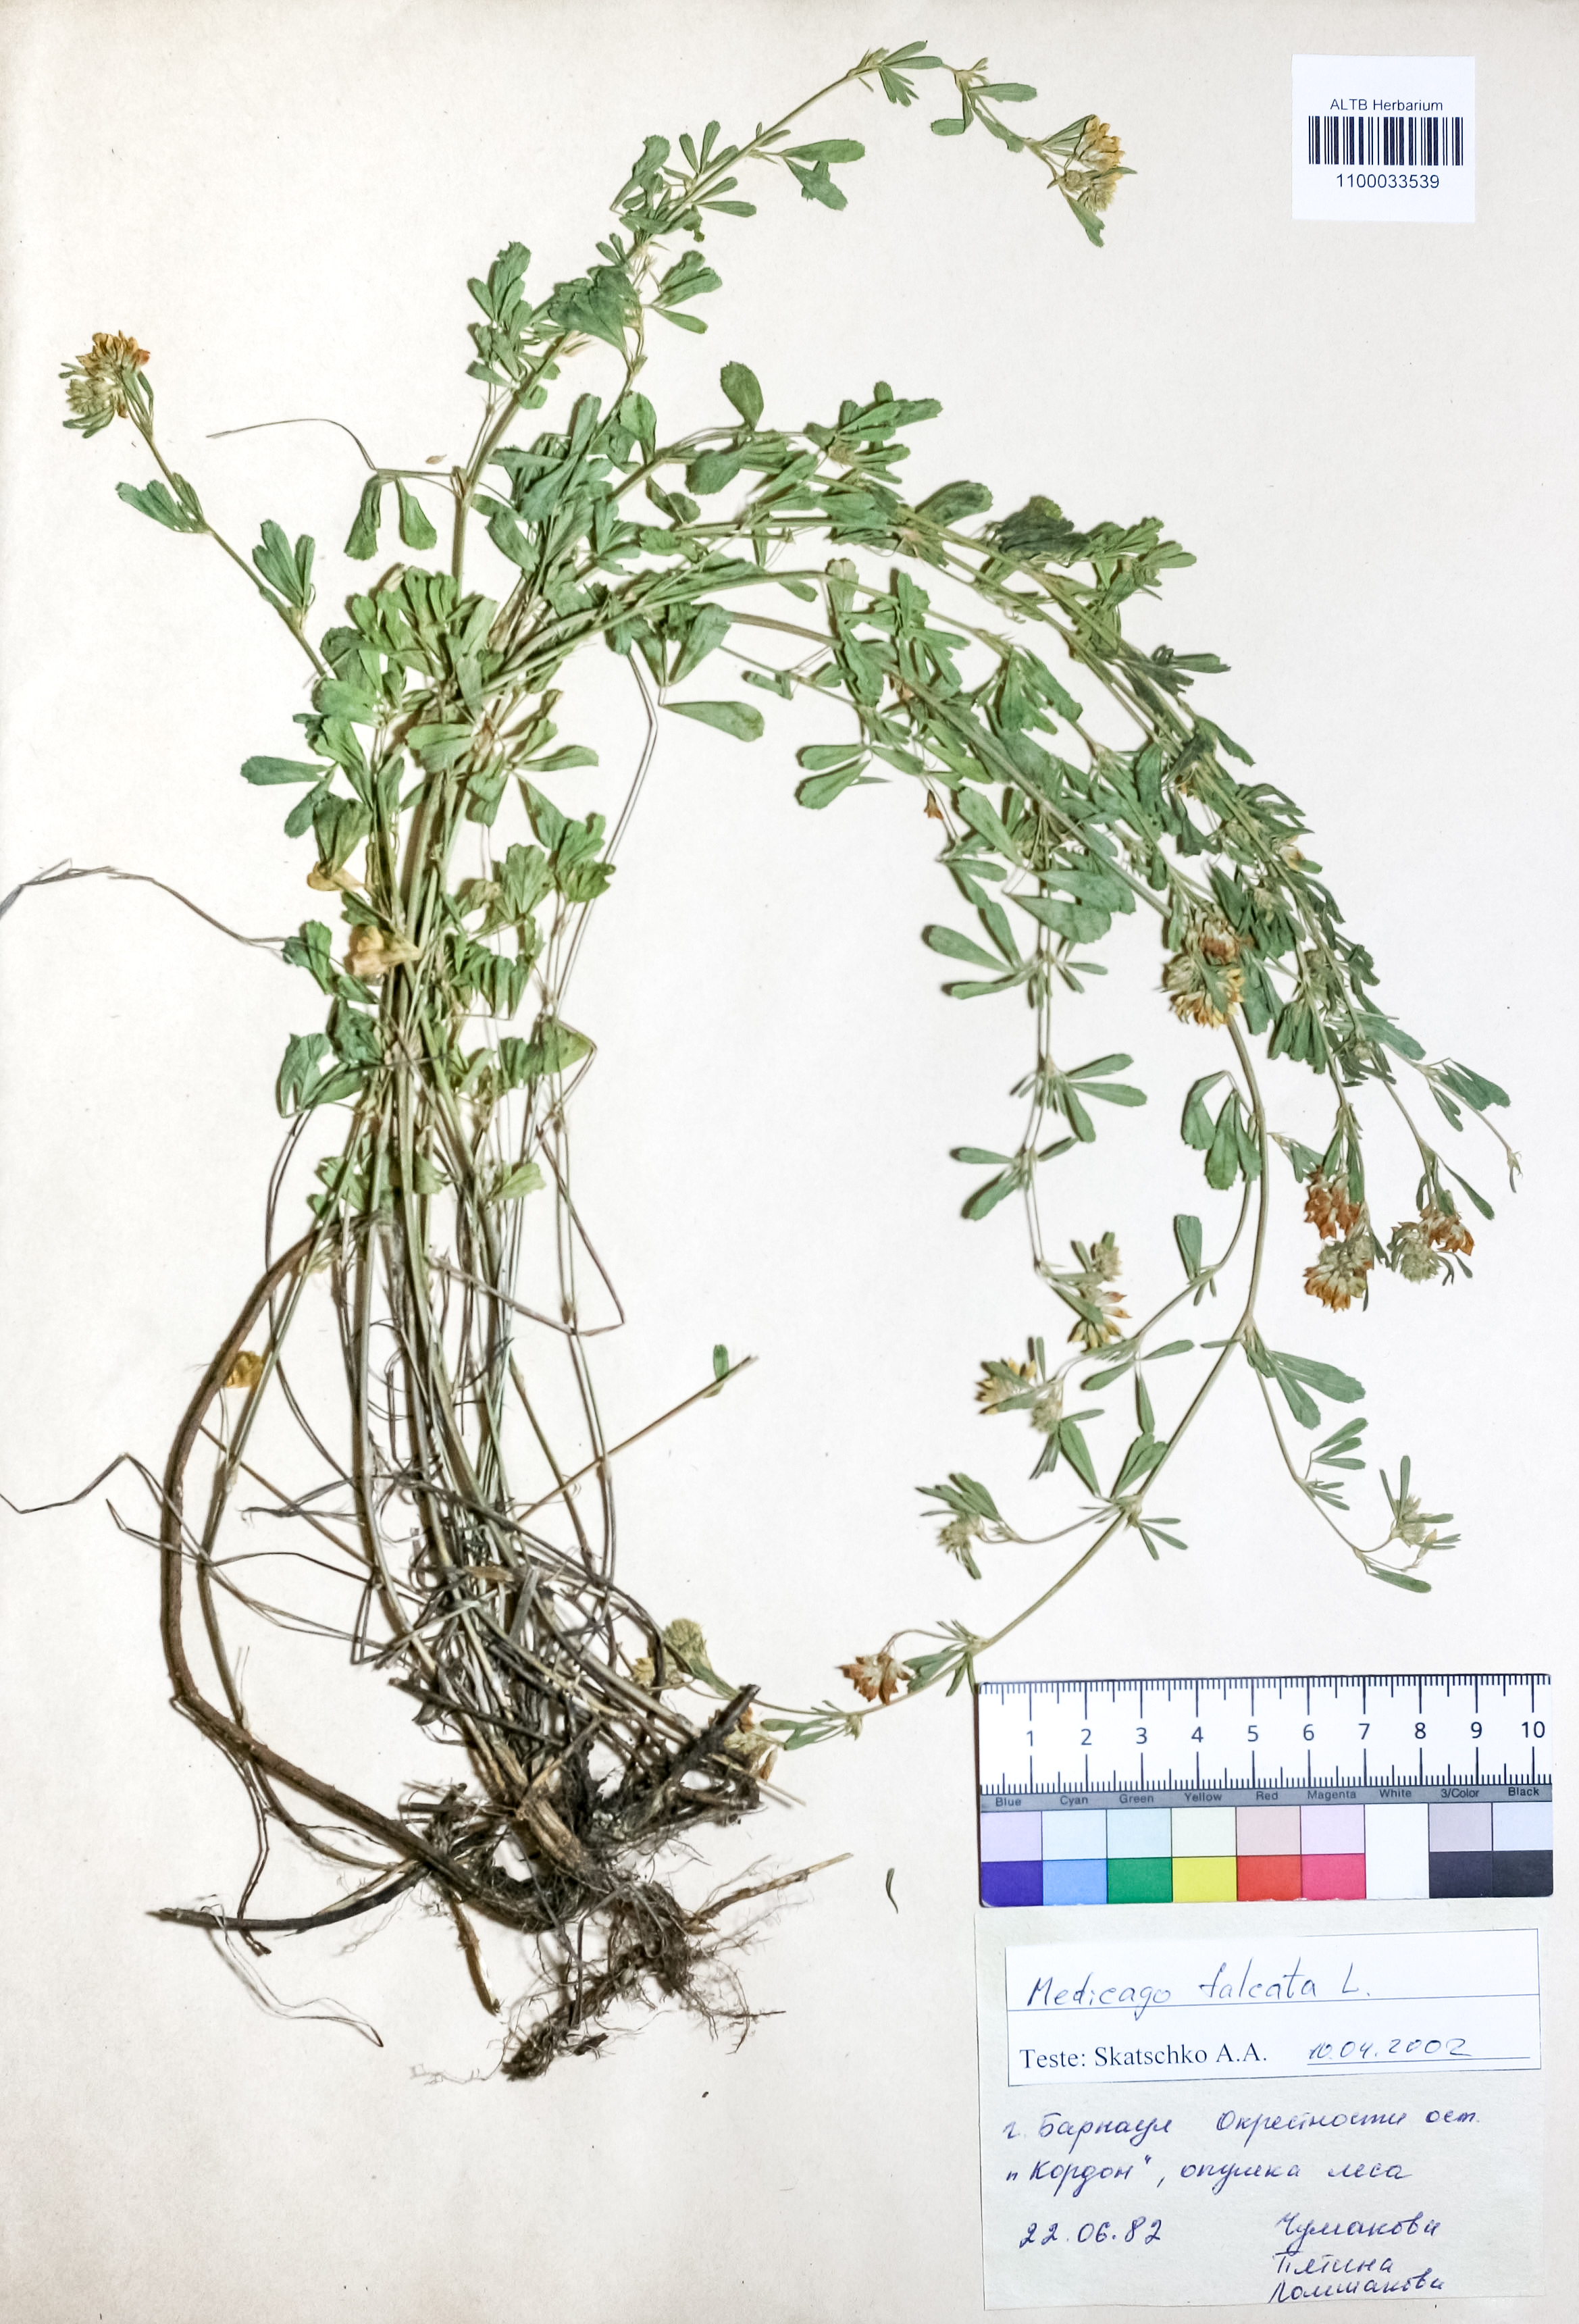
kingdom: Plantae
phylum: Tracheophyta
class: Magnoliopsida
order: Fabales
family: Fabaceae
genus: Medicago
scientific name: Medicago falcata
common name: Sickle medick
